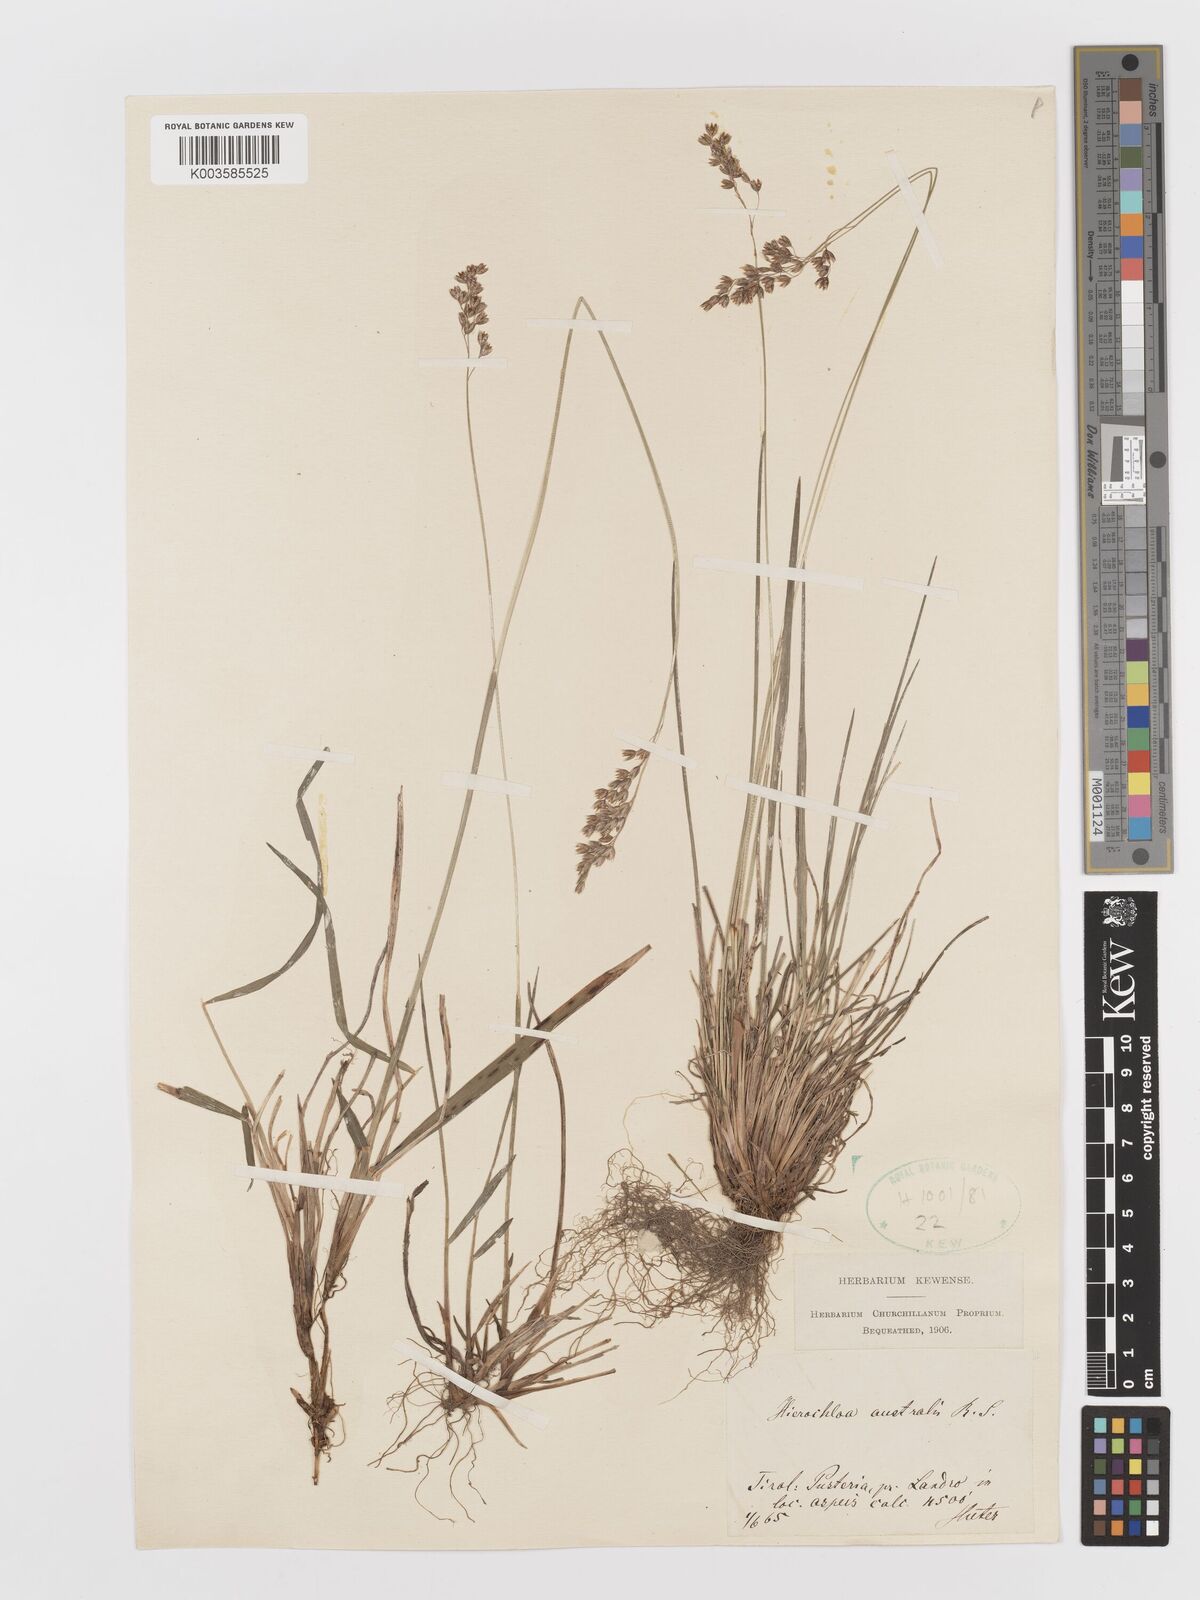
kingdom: Plantae
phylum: Tracheophyta
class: Liliopsida
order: Poales
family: Poaceae
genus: Anthoxanthum
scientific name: Anthoxanthum australe
